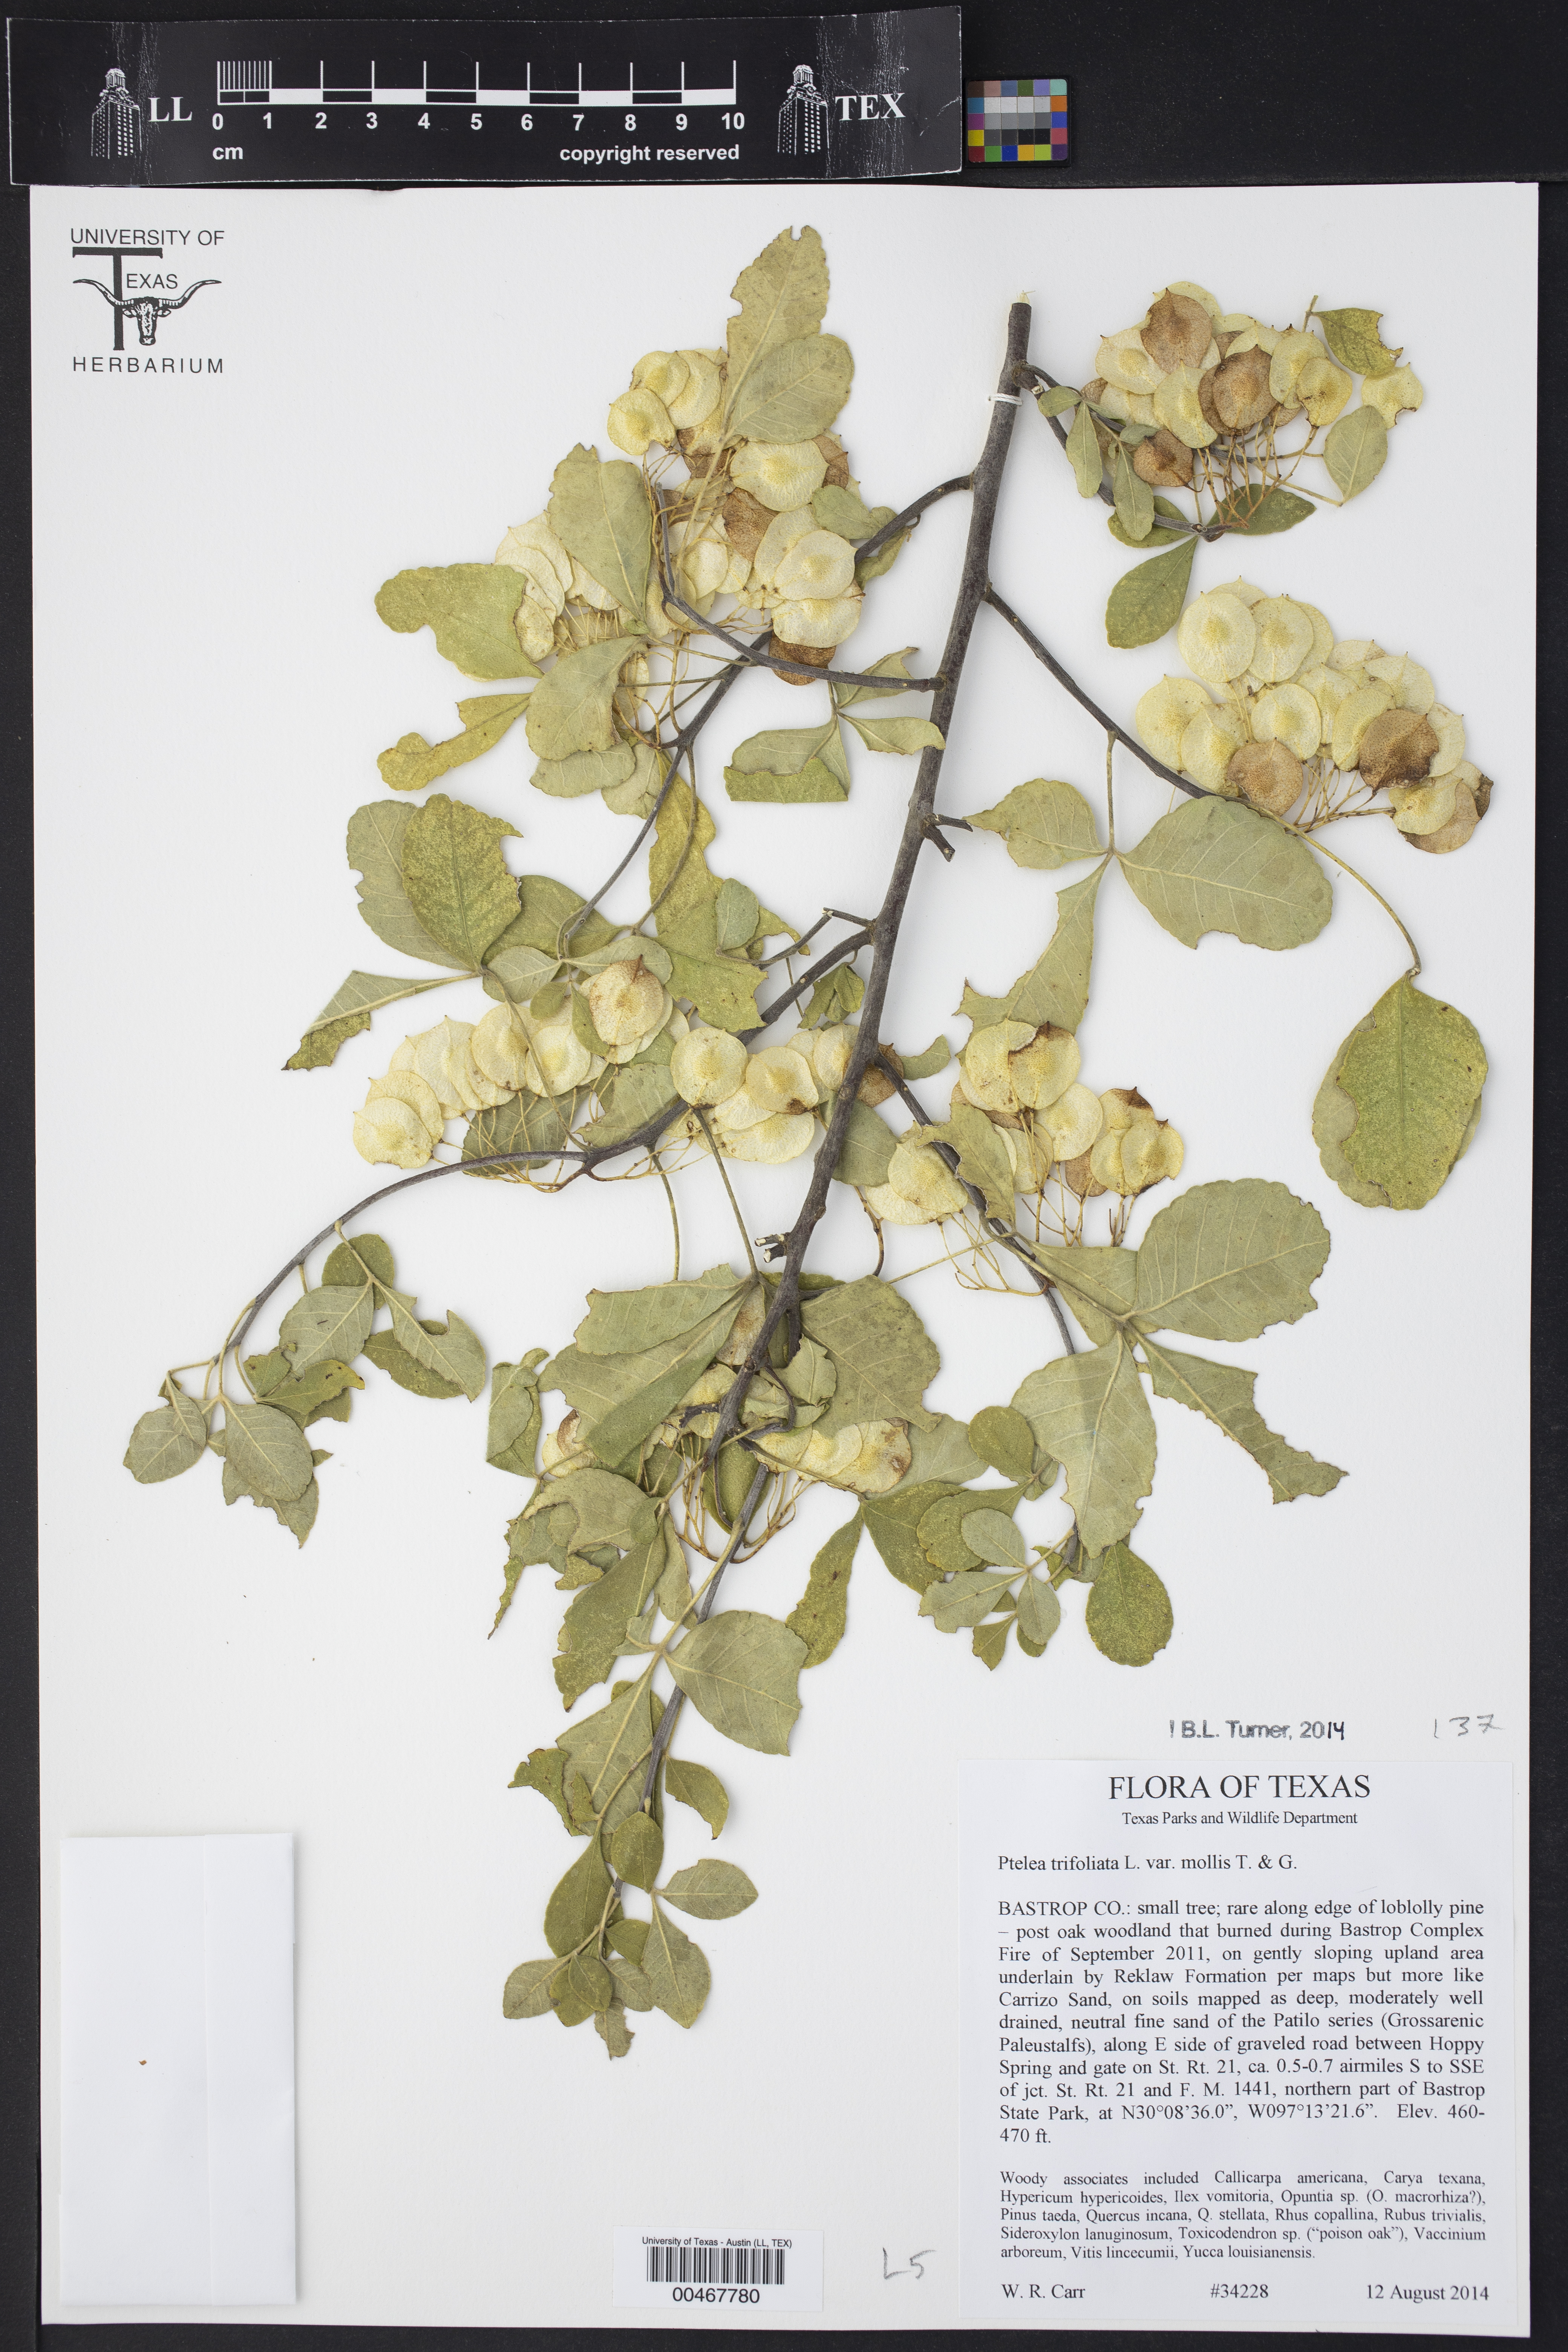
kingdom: Plantae
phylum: Tracheophyta
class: Magnoliopsida
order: Sapindales
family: Rutaceae
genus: Ptelea
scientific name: Ptelea trifoliata
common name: Common hop-tree
